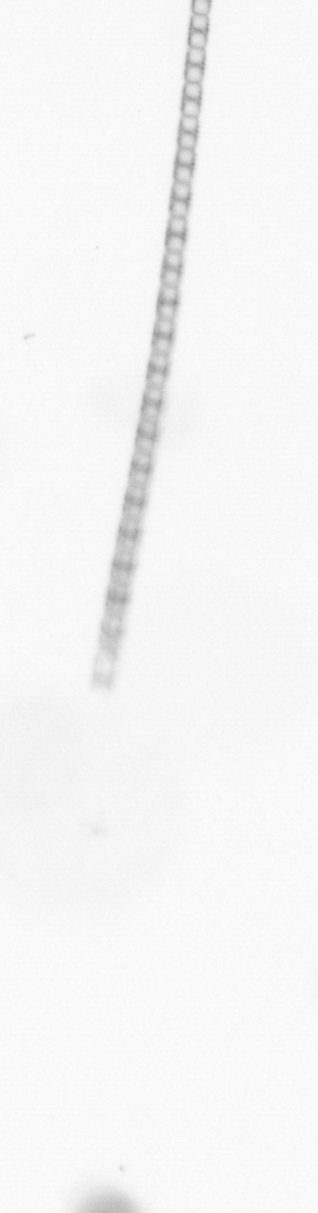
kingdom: Chromista
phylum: Ochrophyta
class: Bacillariophyceae
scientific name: Bacillariophyceae
